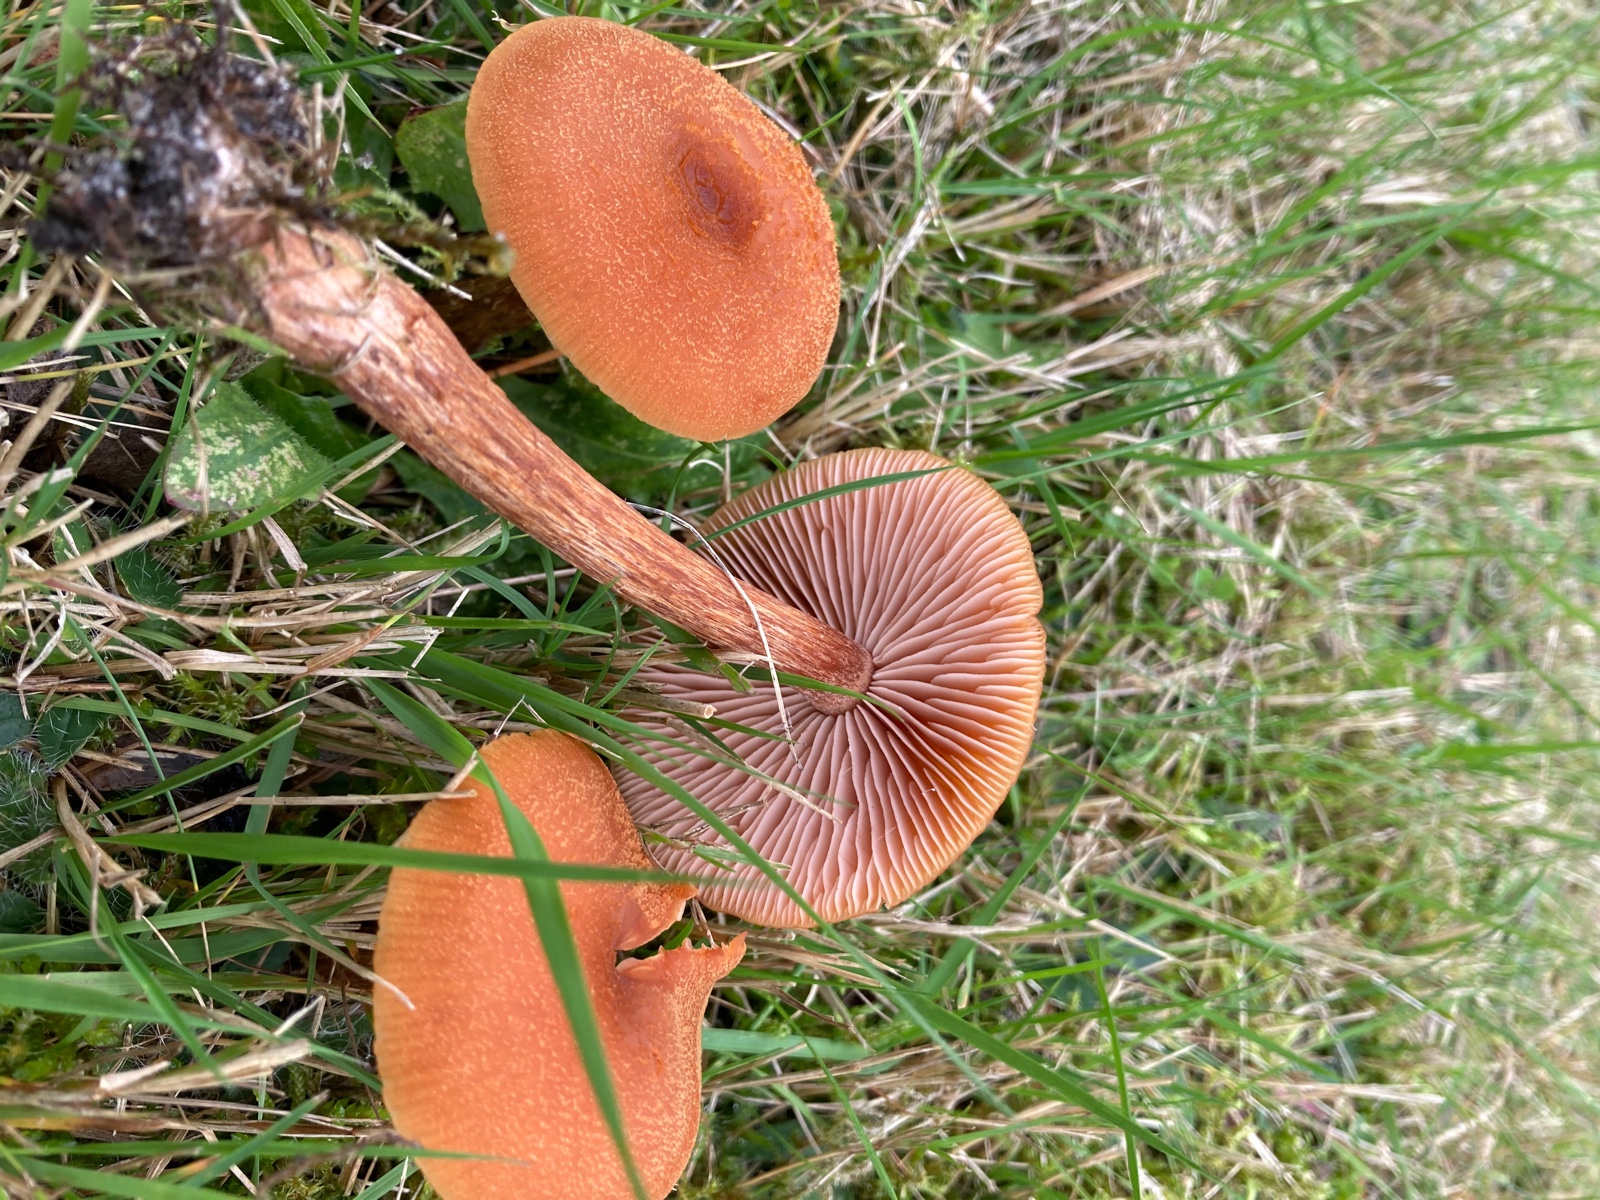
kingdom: Fungi
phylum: Basidiomycota
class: Agaricomycetes
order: Agaricales
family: Hydnangiaceae
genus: Laccaria
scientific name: Laccaria
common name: ametysthat
